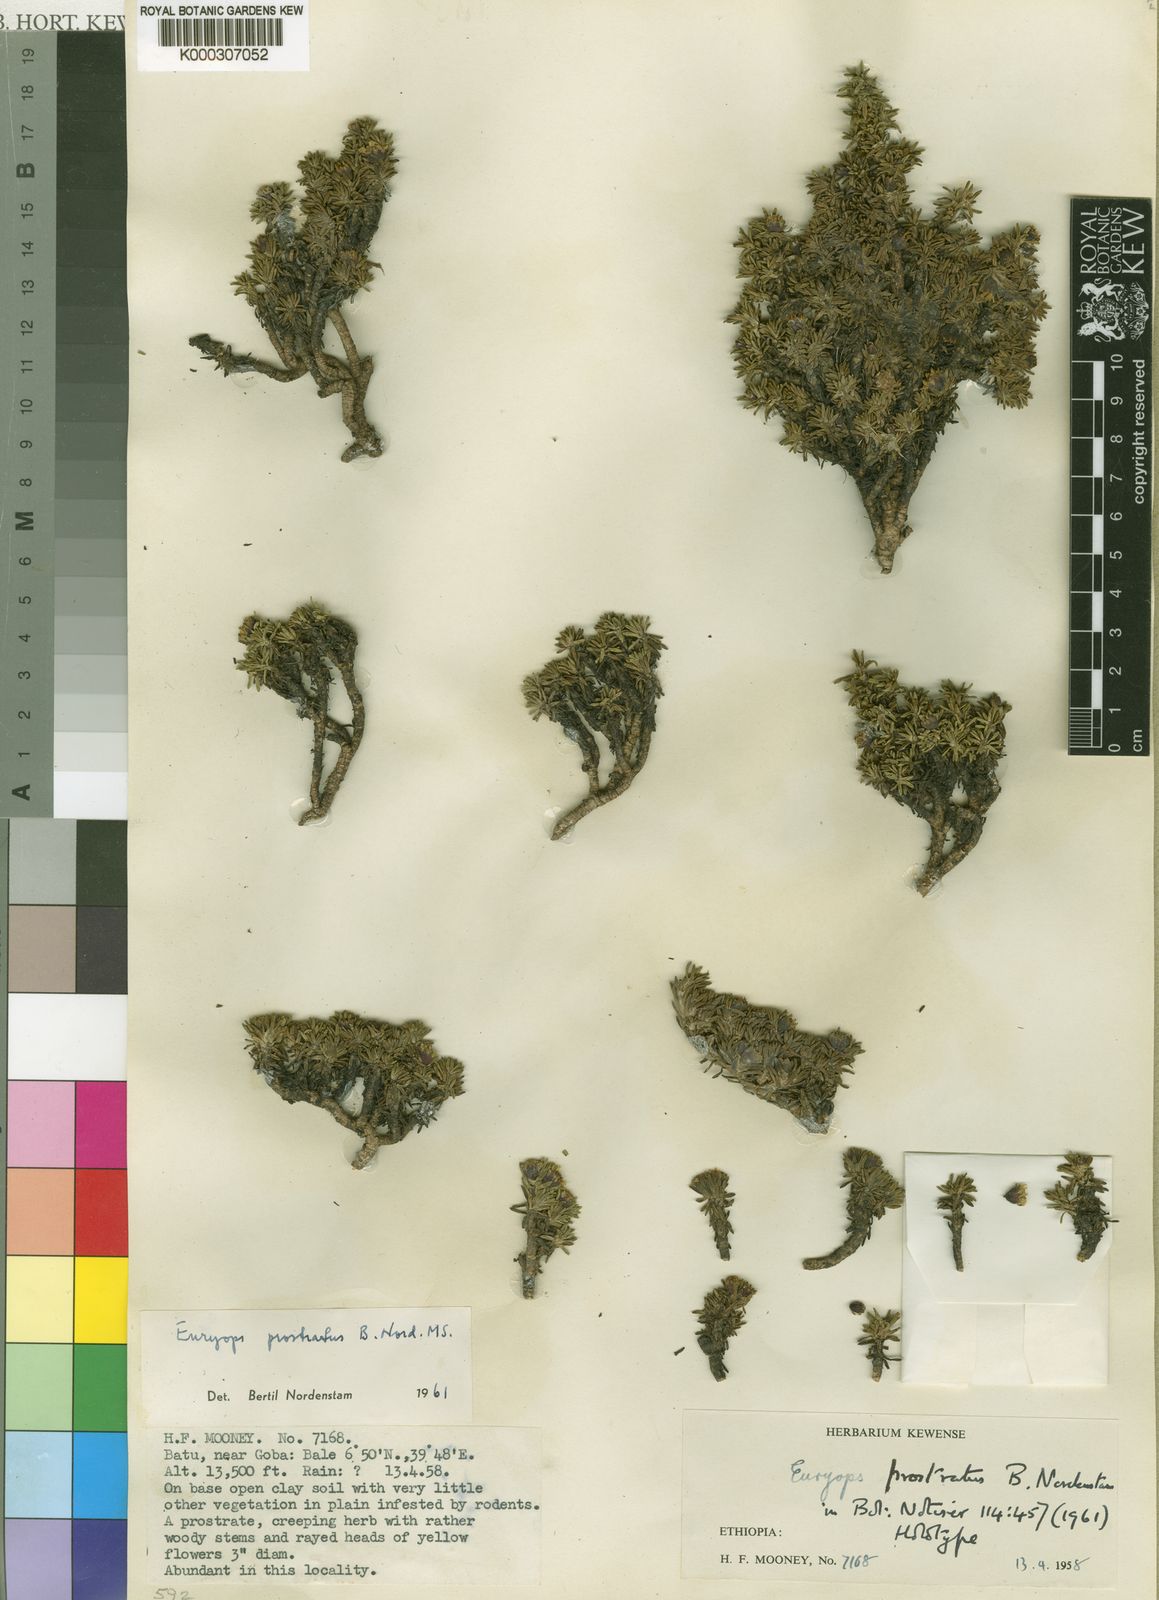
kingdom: Plantae
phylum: Tracheophyta
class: Magnoliopsida
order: Asterales
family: Asteraceae
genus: Euryops
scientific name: Euryops prostratus
